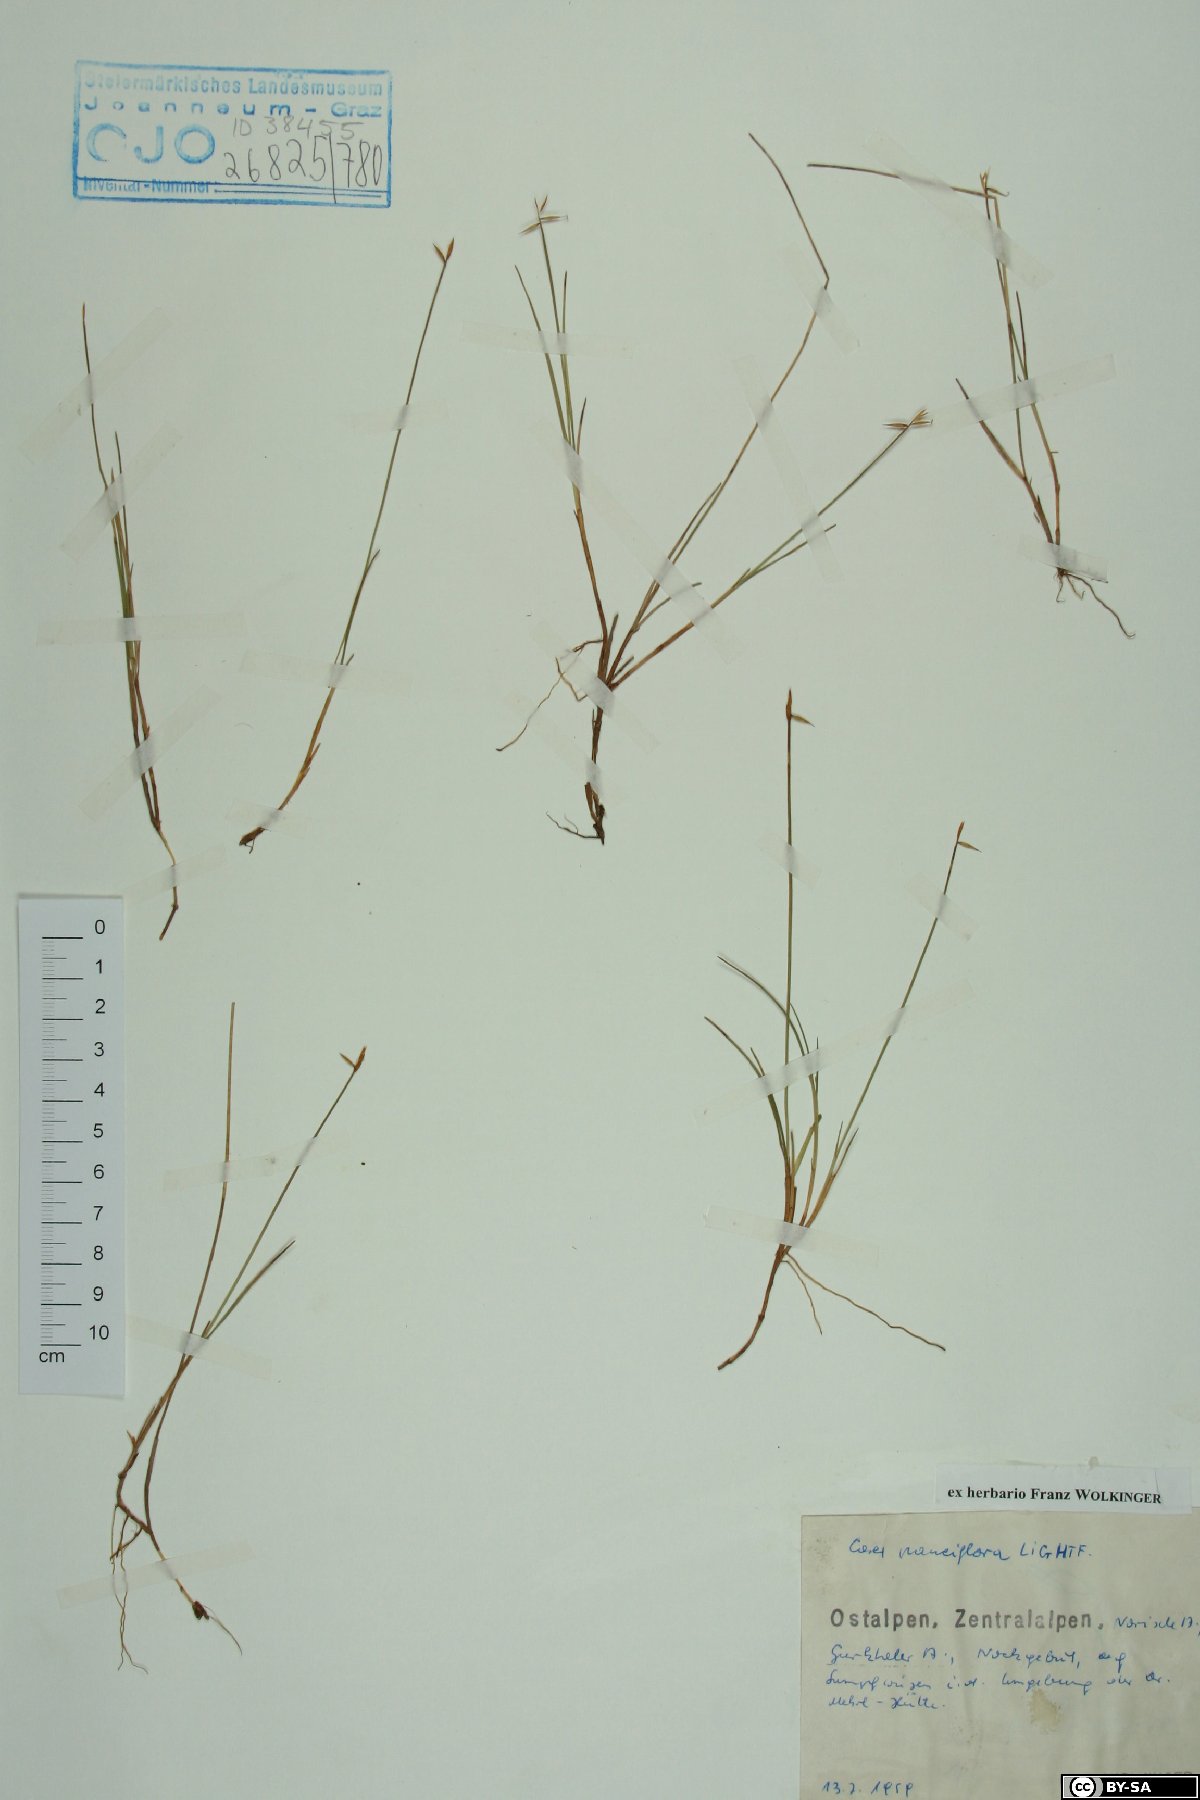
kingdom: Plantae
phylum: Tracheophyta
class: Liliopsida
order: Poales
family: Cyperaceae
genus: Carex
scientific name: Carex pauciflora
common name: Few-flowered sedge
